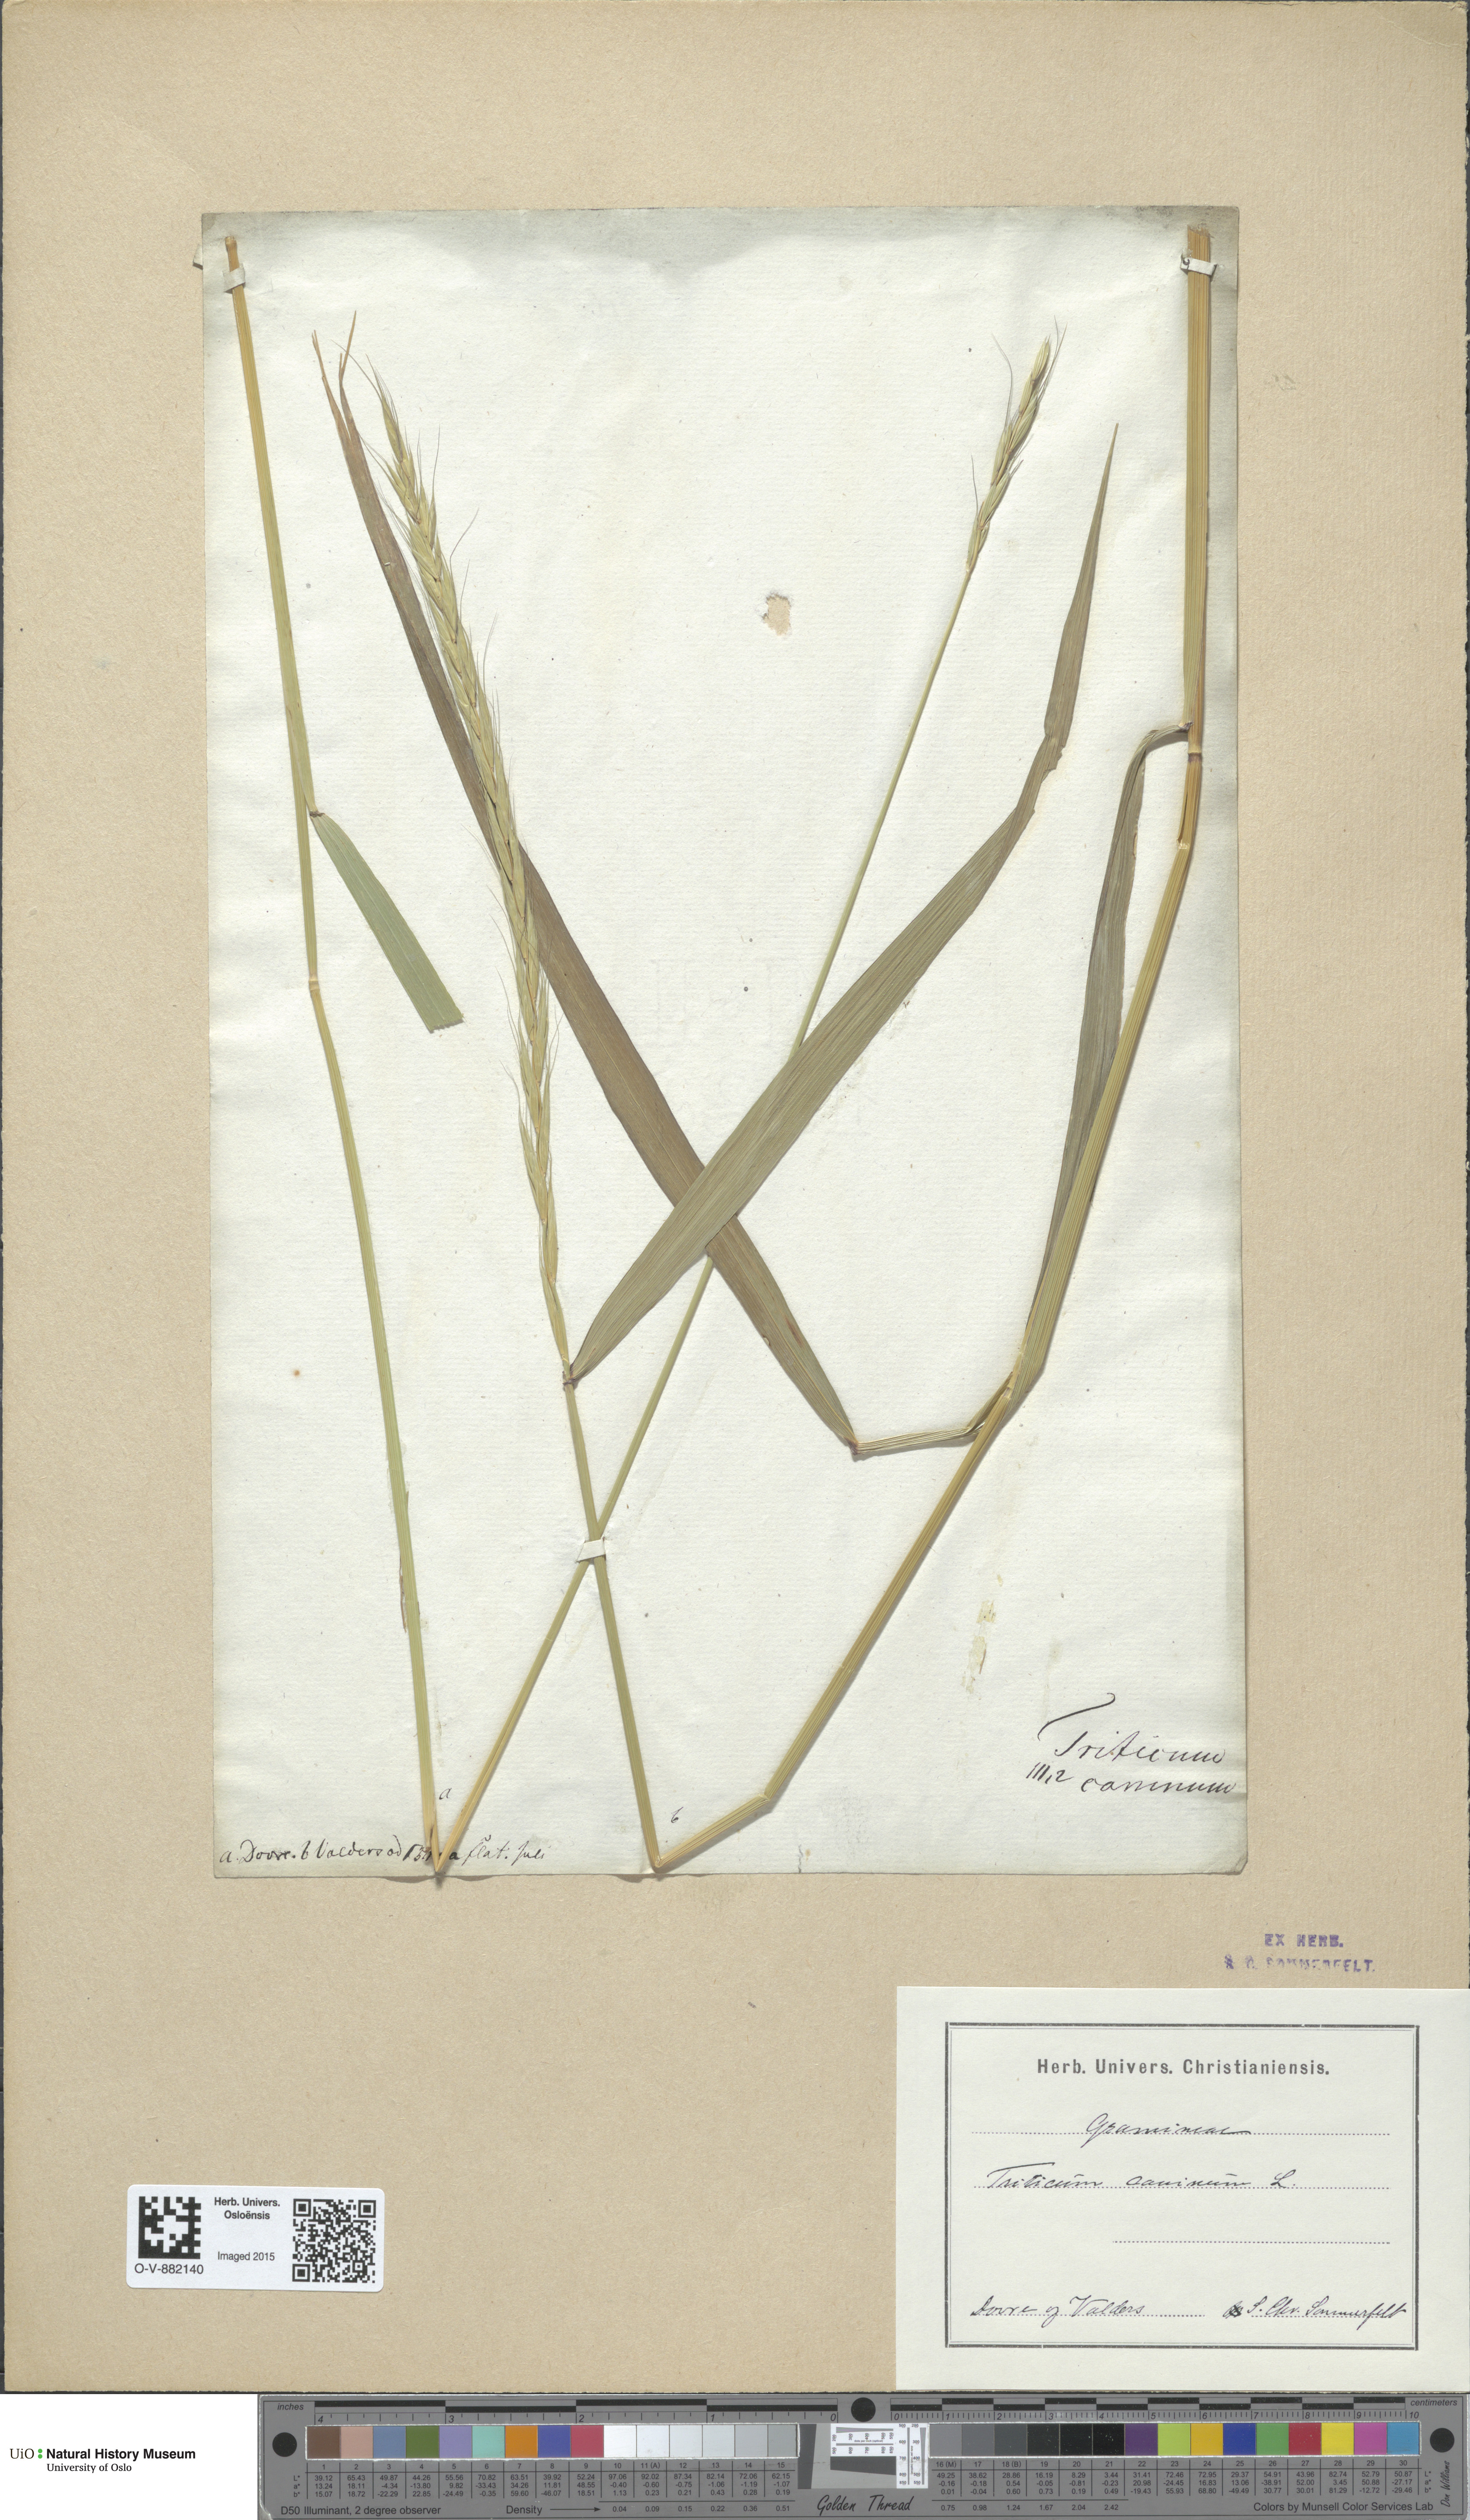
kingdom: Plantae
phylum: Tracheophyta
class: Liliopsida
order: Poales
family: Poaceae
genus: Elymus
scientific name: Elymus caninus
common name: Bearded couch
